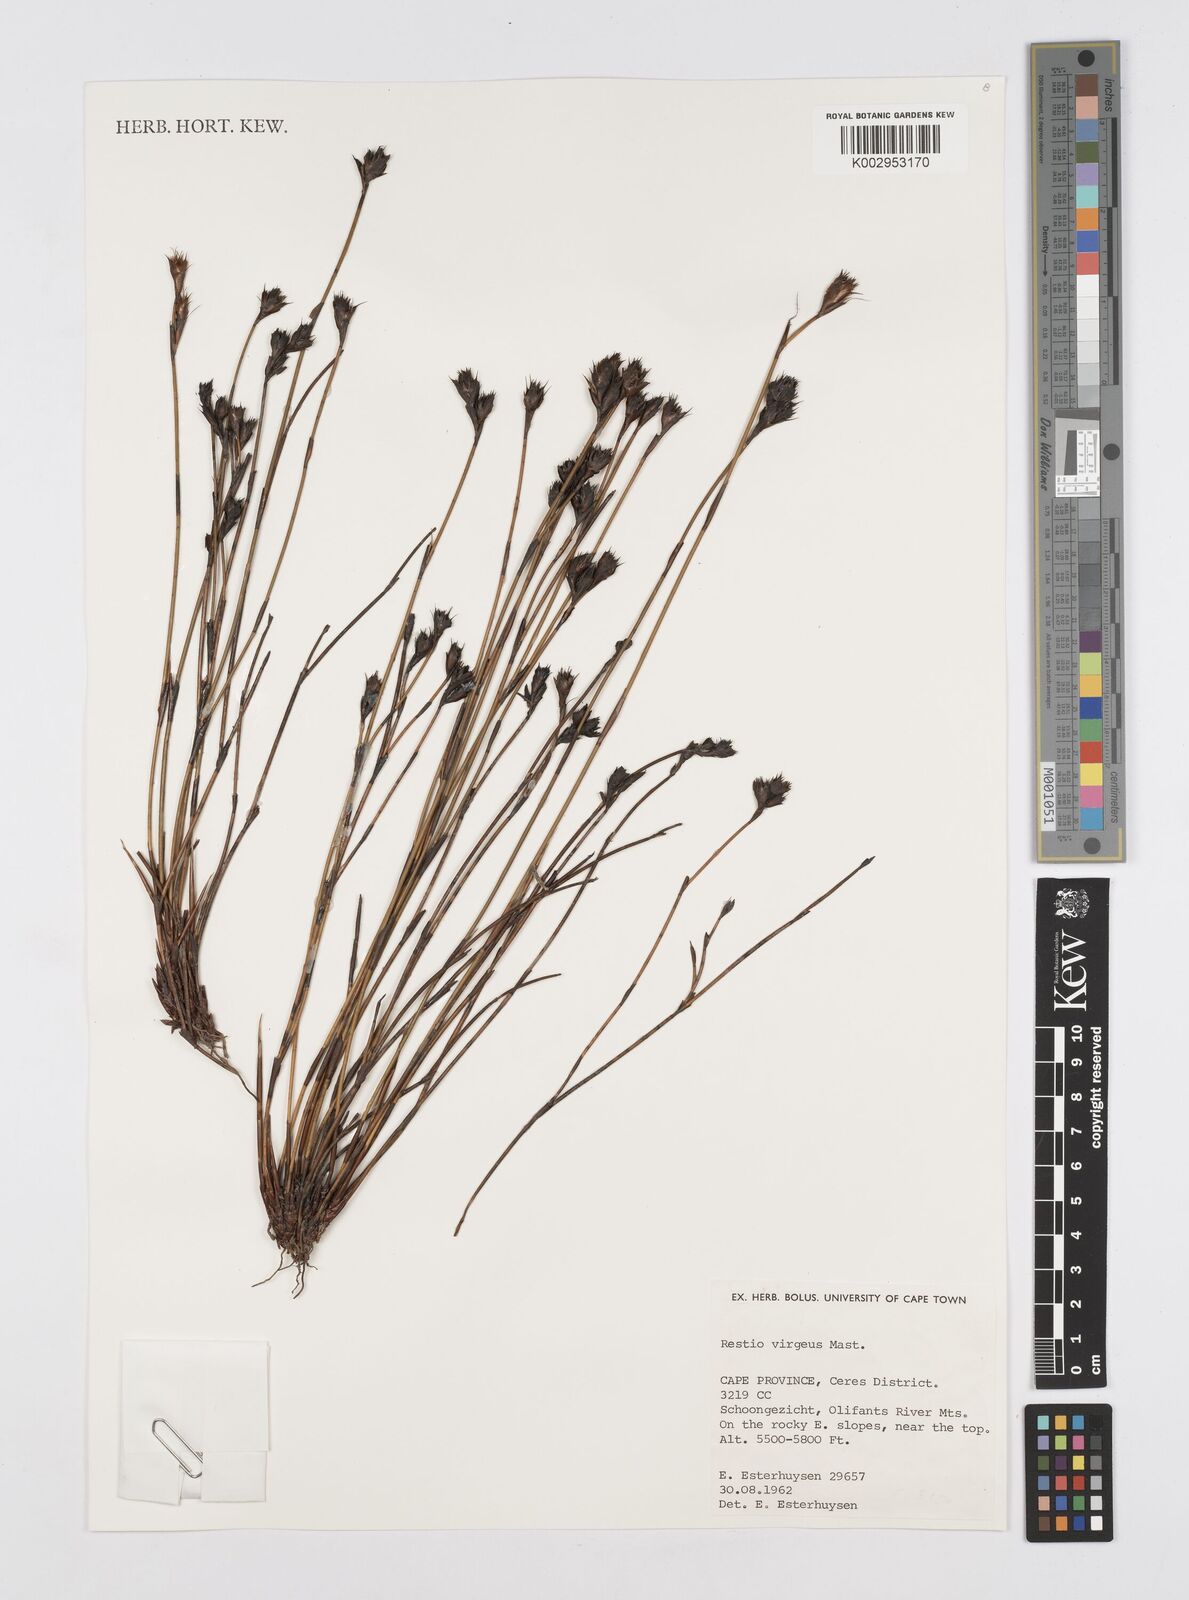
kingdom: Plantae
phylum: Tracheophyta
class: Liliopsida
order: Poales
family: Restionaceae
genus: Restio
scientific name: Restio virgeus
